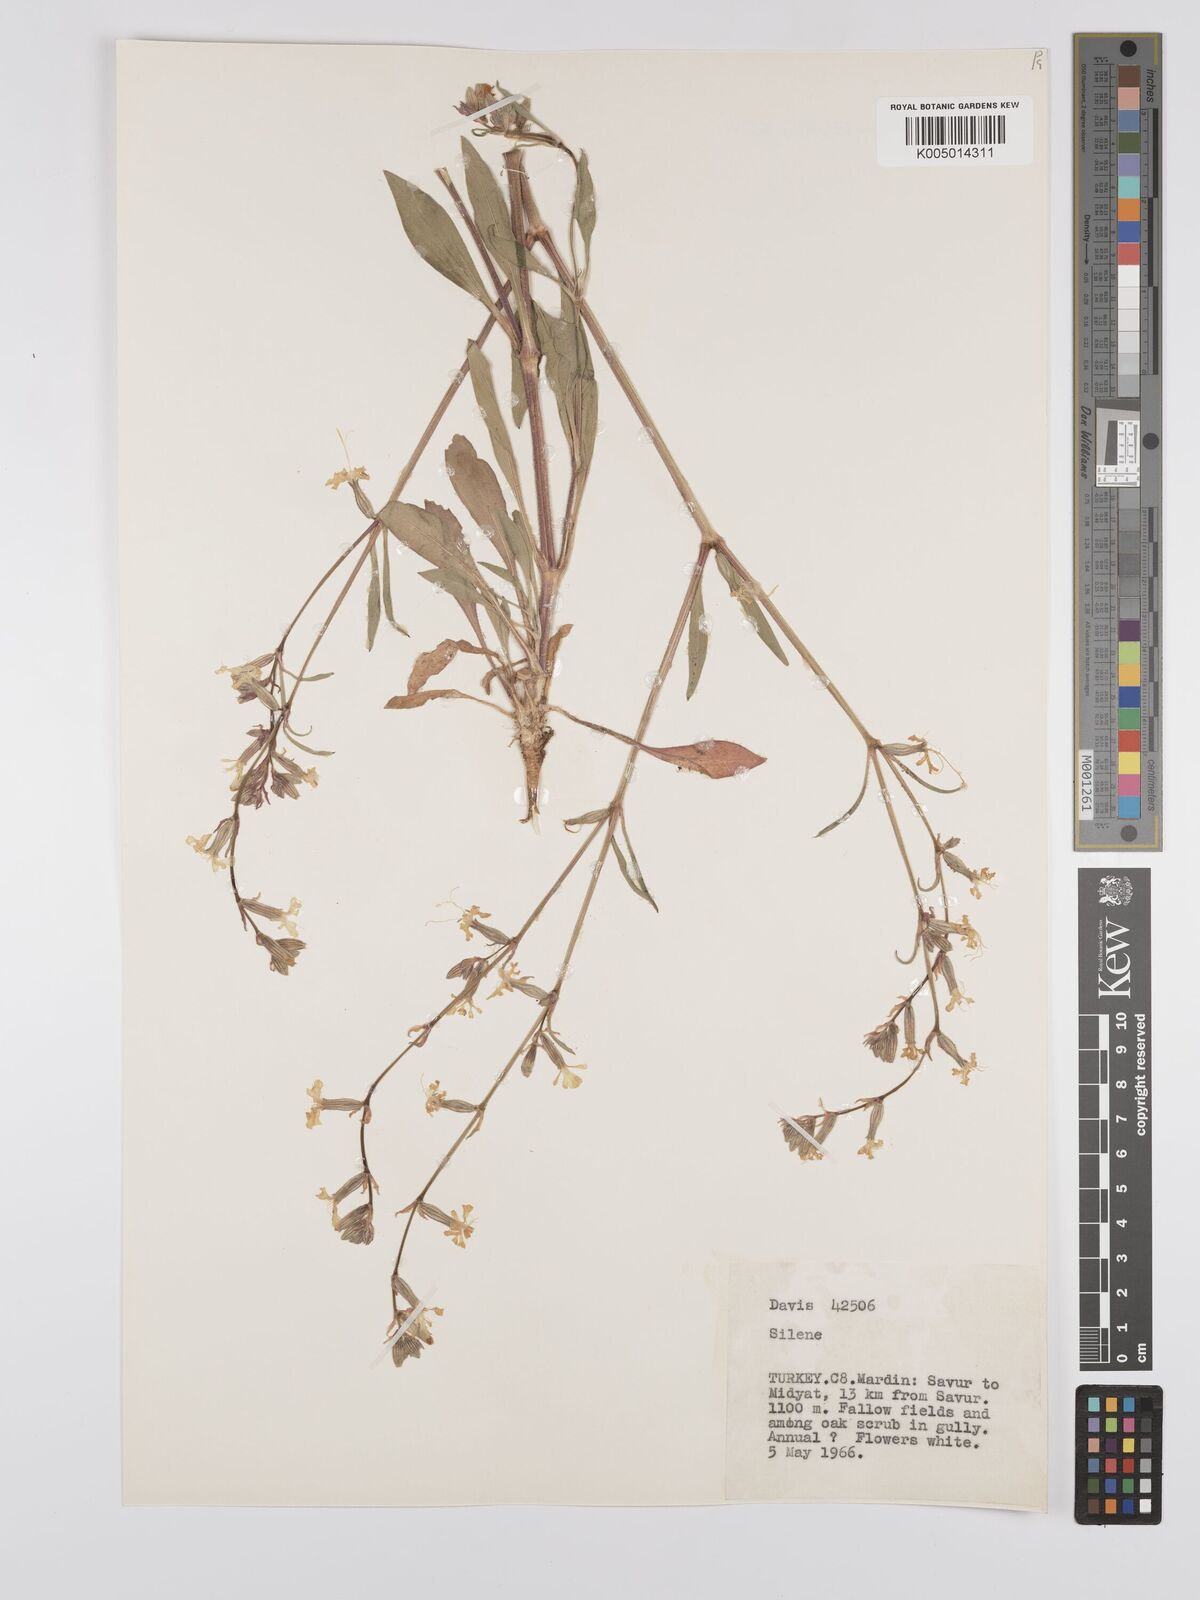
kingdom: Plantae
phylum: Tracheophyta
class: Magnoliopsida
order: Caryophyllales
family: Caryophyllaceae
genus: Silene
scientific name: Silene
